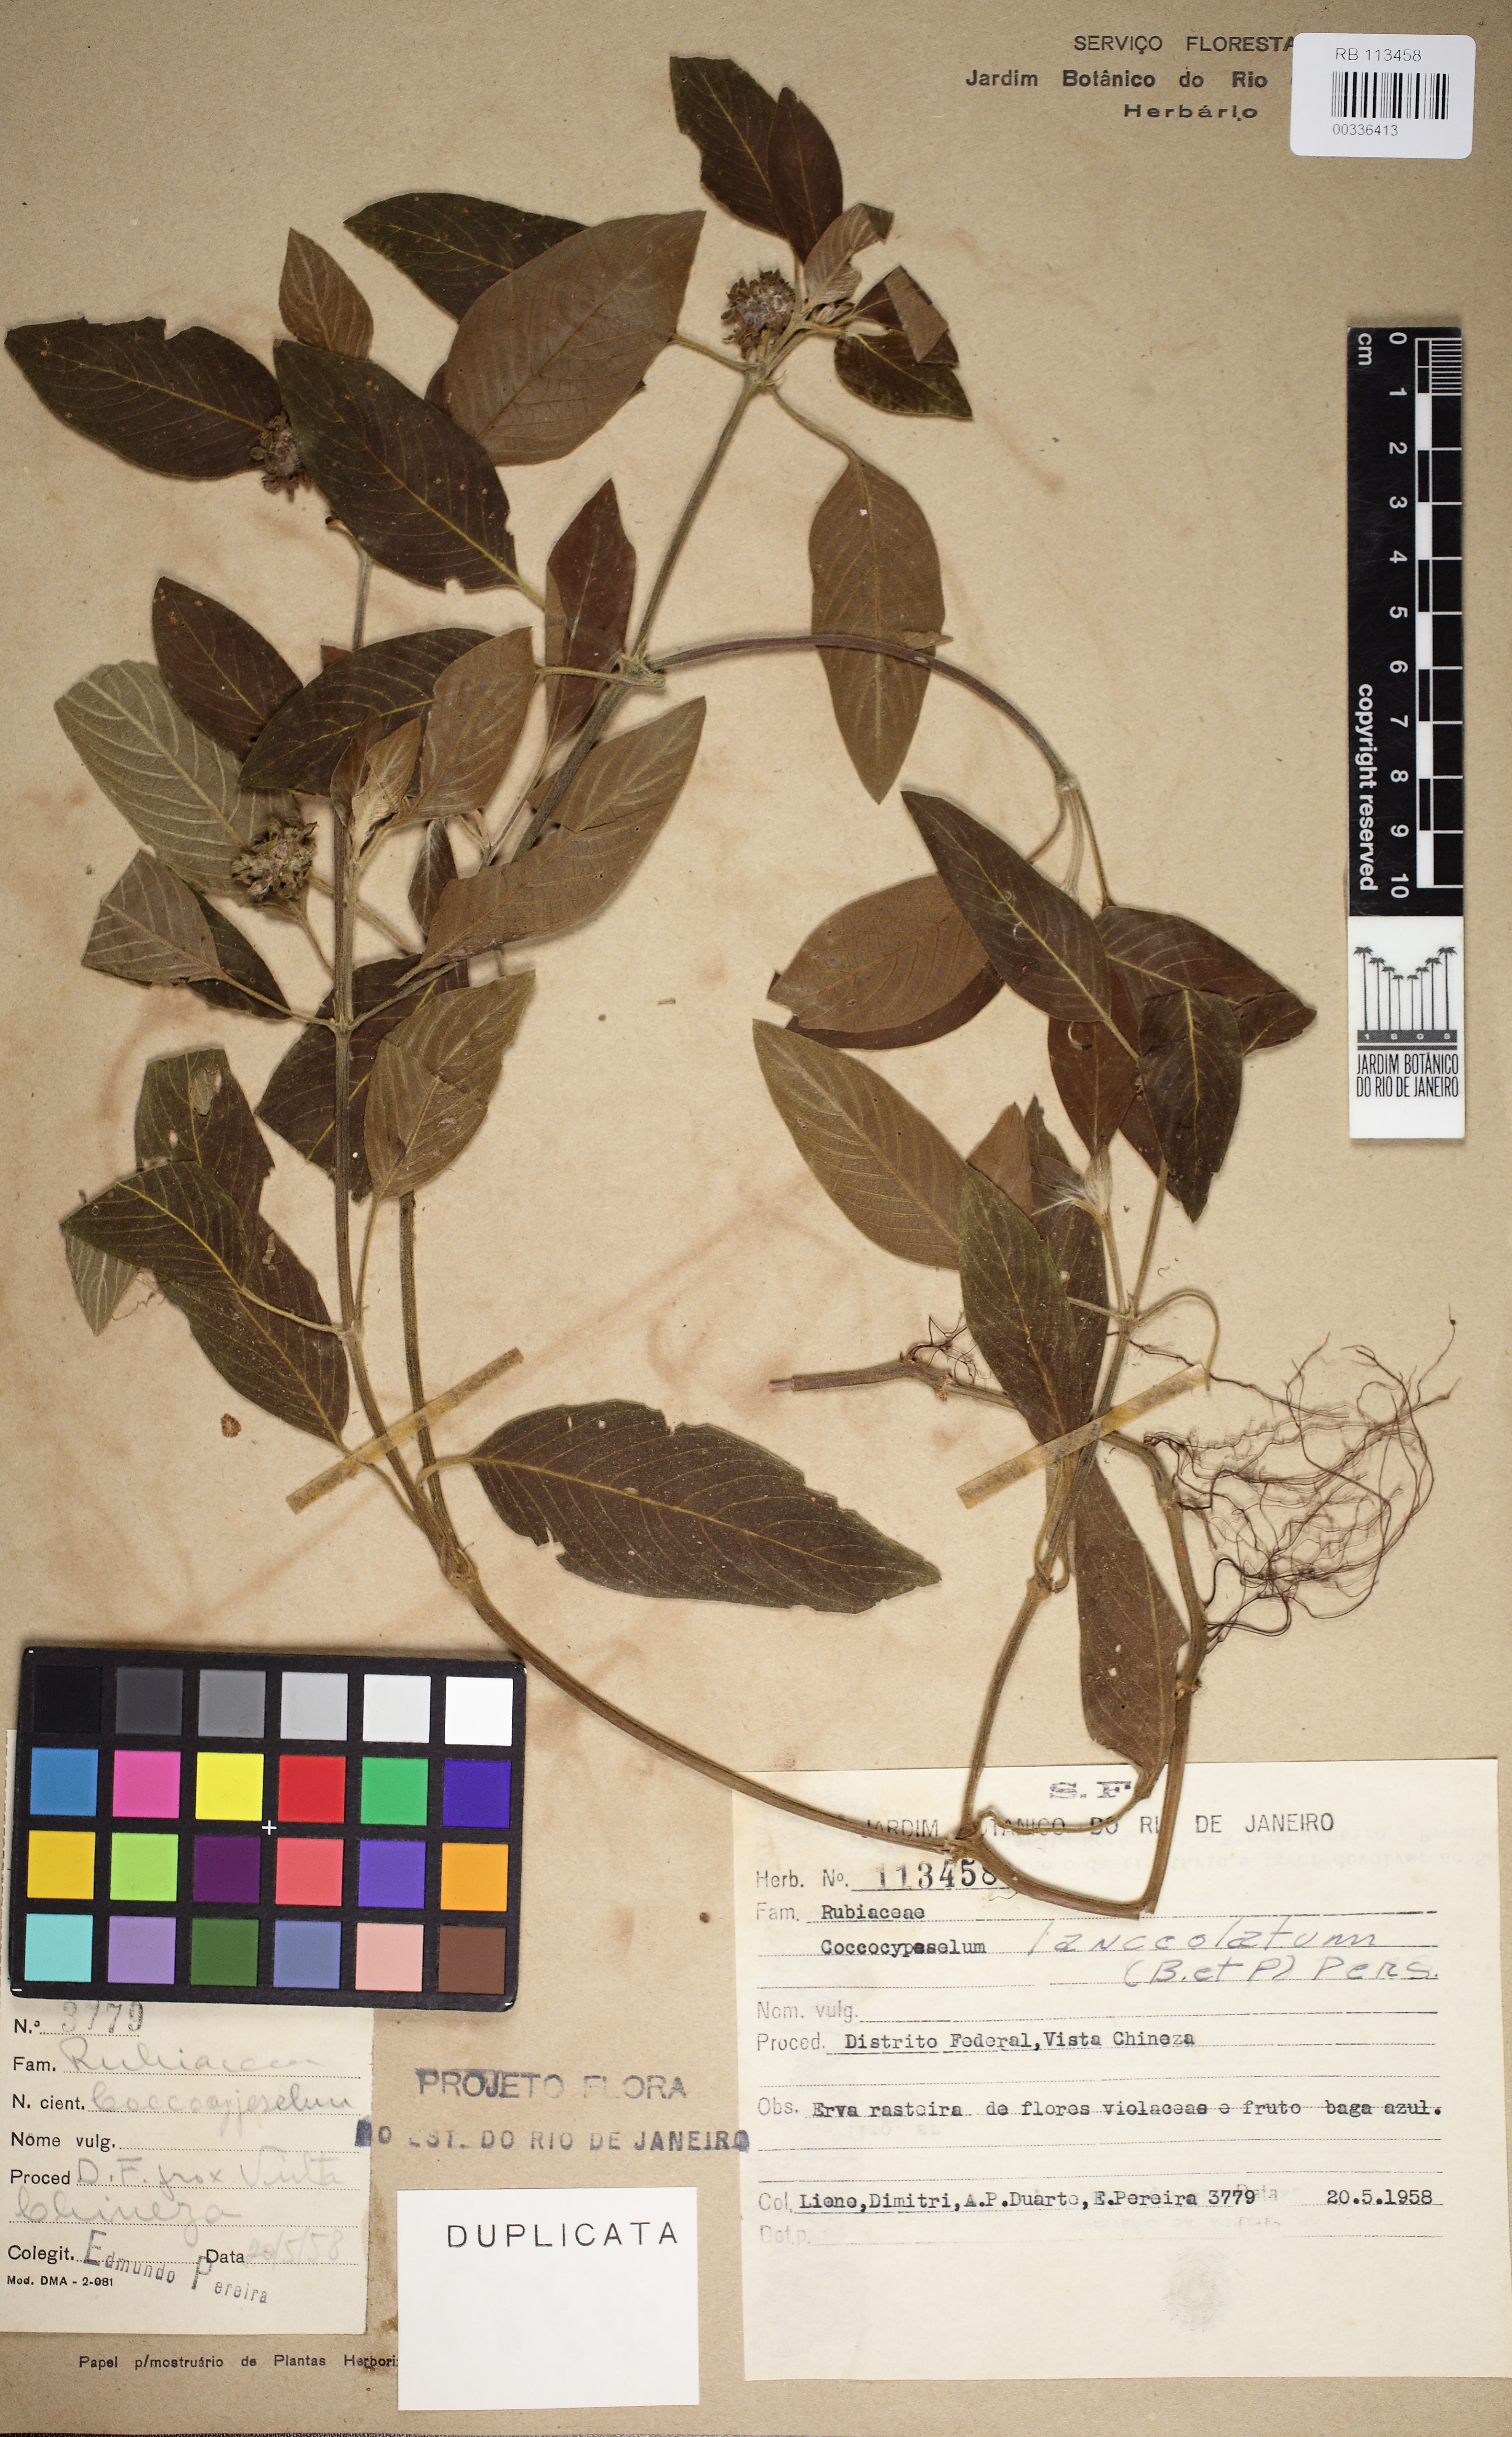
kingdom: Plantae
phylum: Tracheophyta
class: Magnoliopsida
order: Gentianales
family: Rubiaceae
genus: Coccocypselum
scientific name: Coccocypselum lanceolatum
